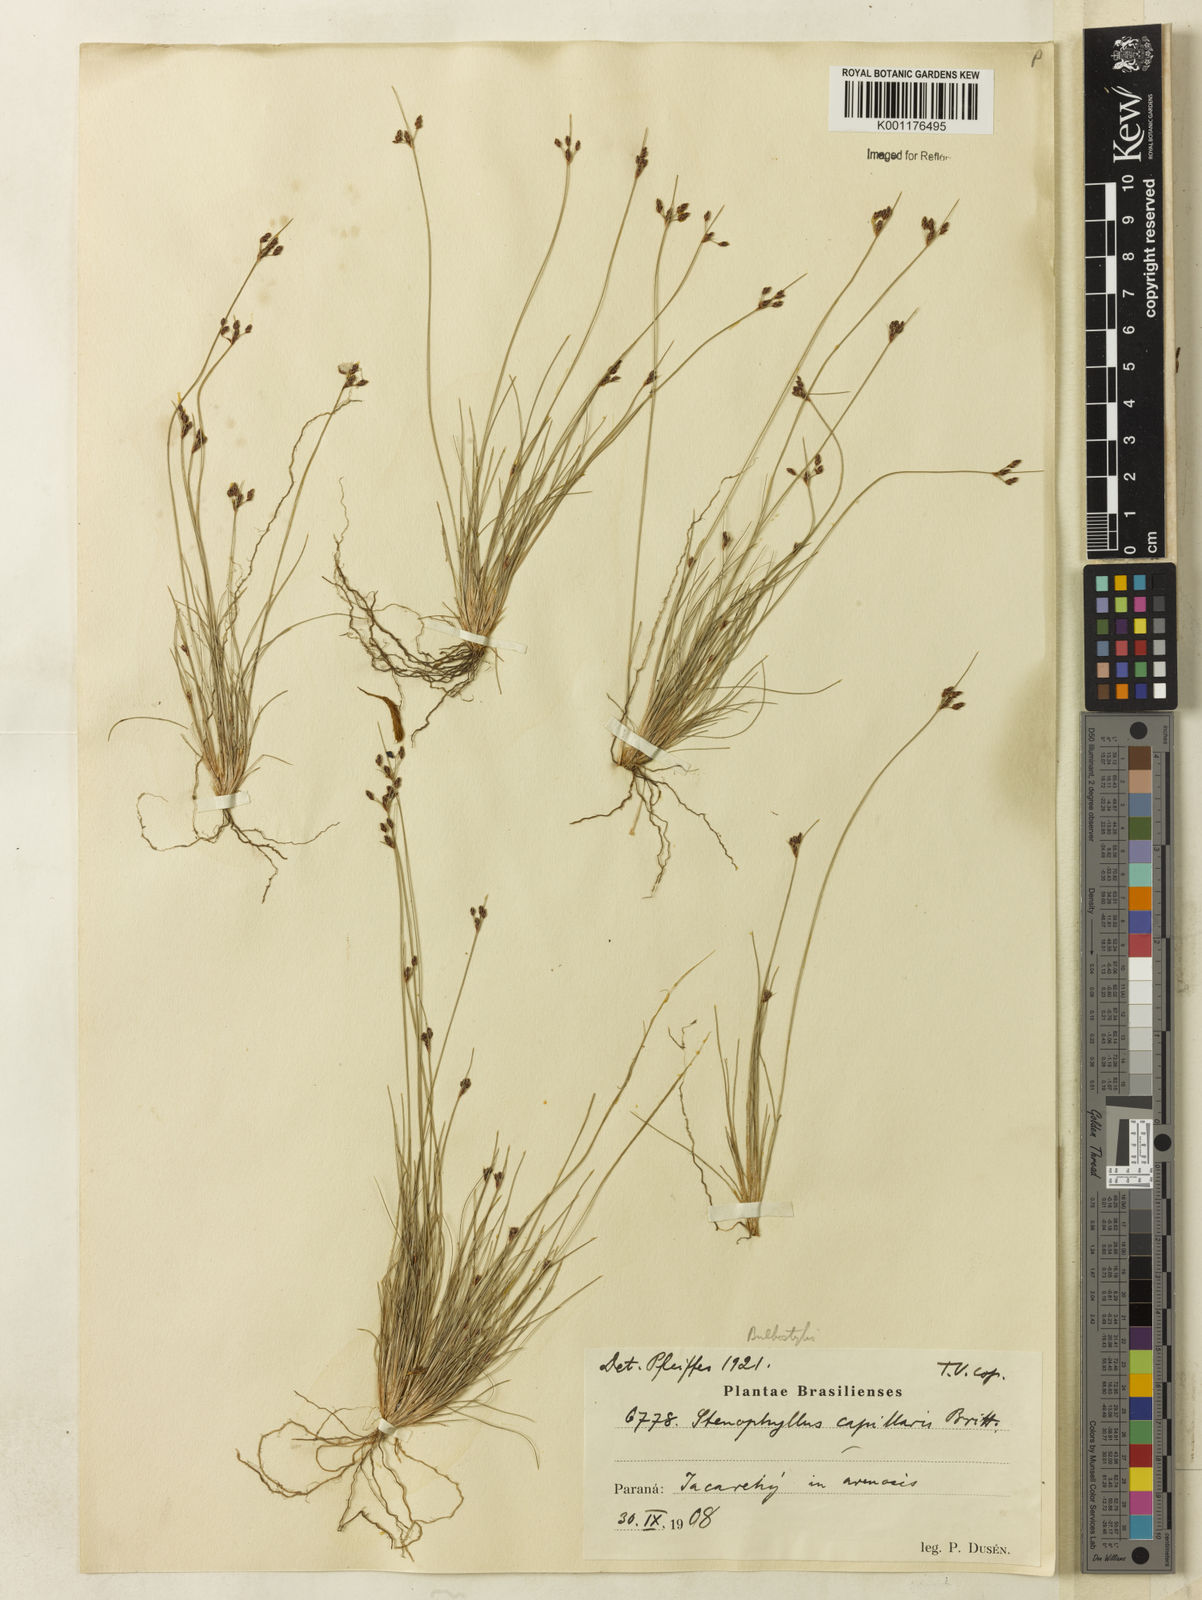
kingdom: Plantae
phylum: Tracheophyta
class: Liliopsida
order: Poales
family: Cyperaceae
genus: Bulbostylis
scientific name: Bulbostylis capillaris
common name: Densetuft hairsedge
